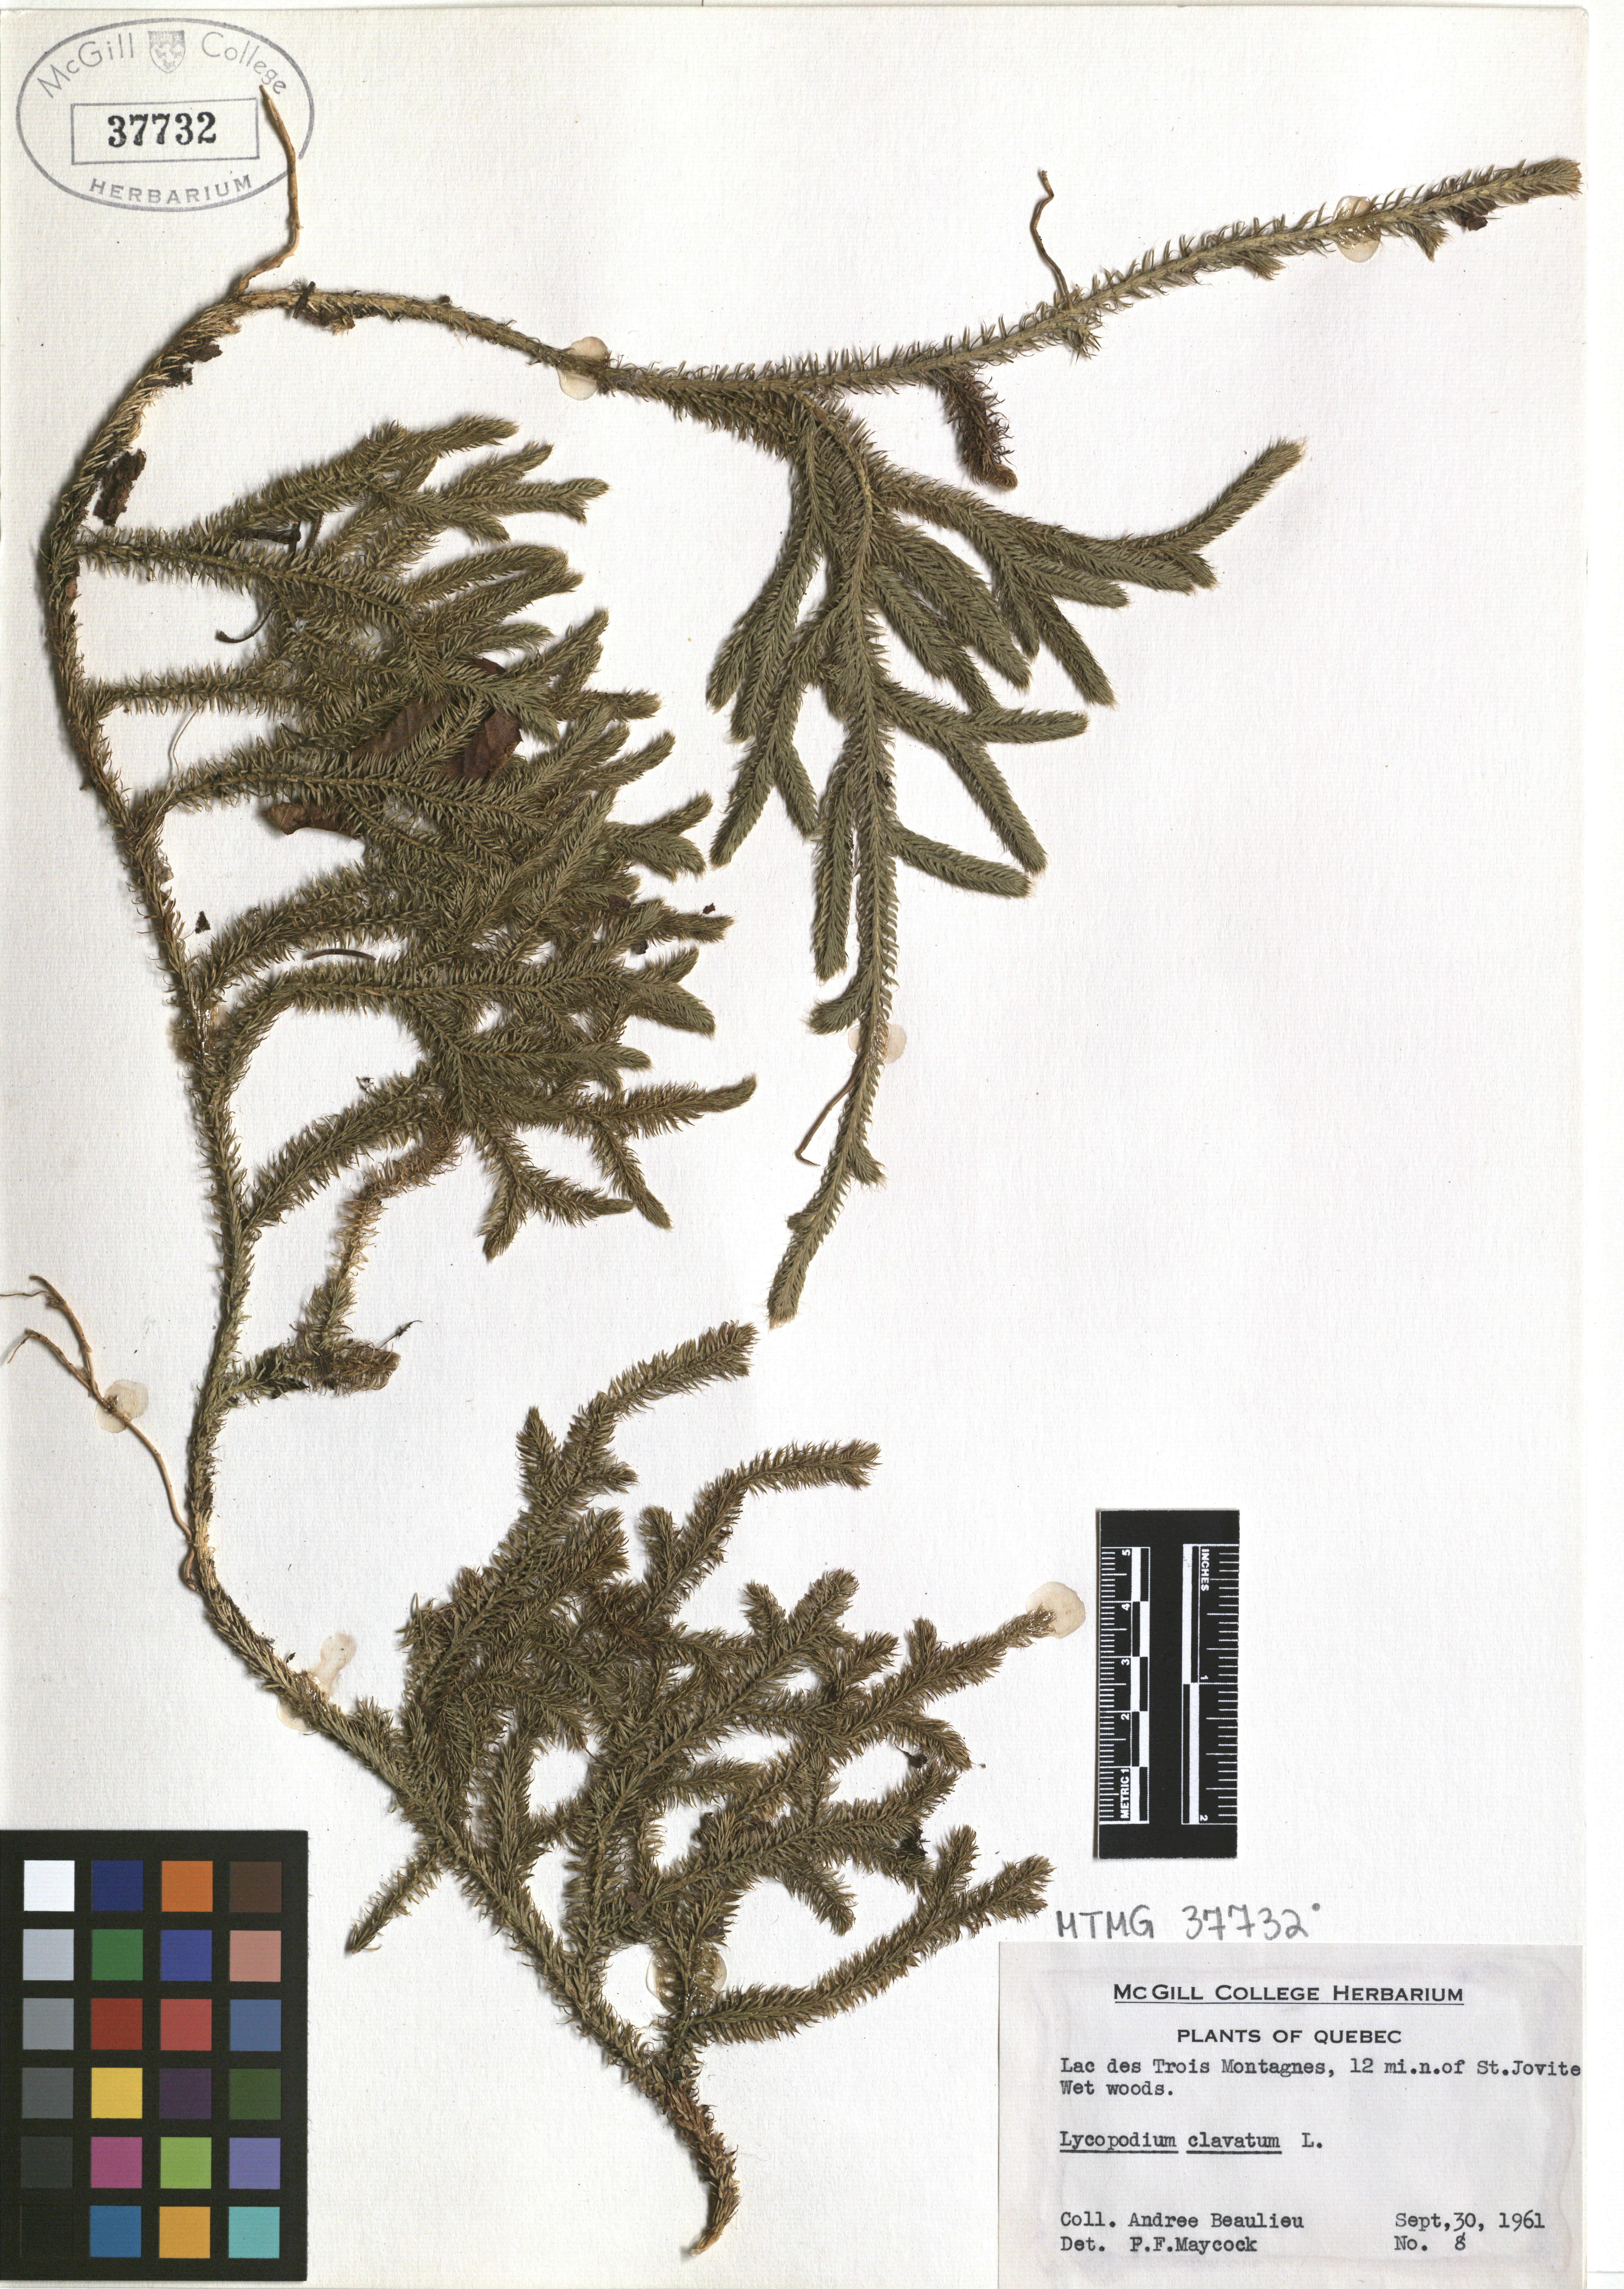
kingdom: Plantae
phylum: Tracheophyta
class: Lycopodiopsida
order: Lycopodiales
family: Lycopodiaceae
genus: Lycopodium
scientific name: Lycopodium clavatum
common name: Stag's-horn clubmoss
